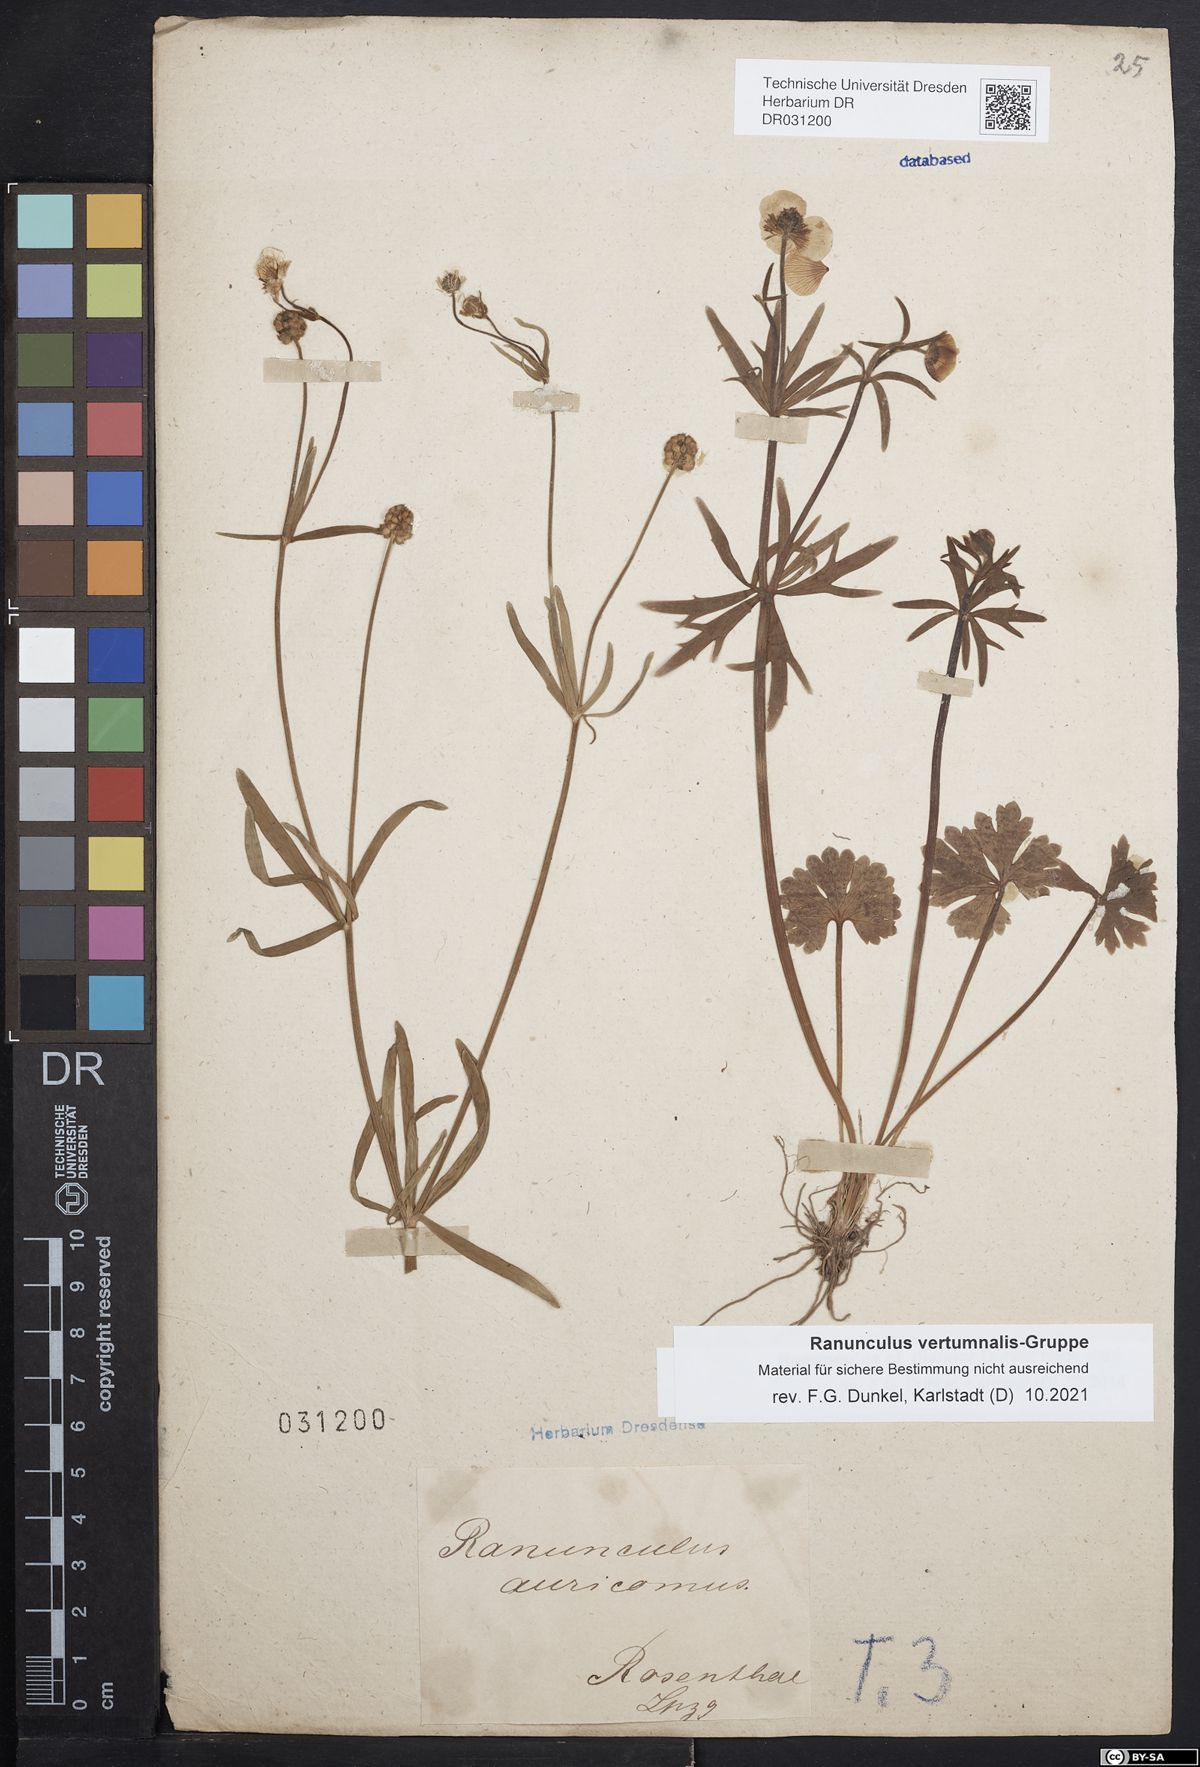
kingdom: Plantae
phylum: Tracheophyta
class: Magnoliopsida
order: Ranunculales
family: Ranunculaceae
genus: Ranunculus
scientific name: Ranunculus vertumnalis
